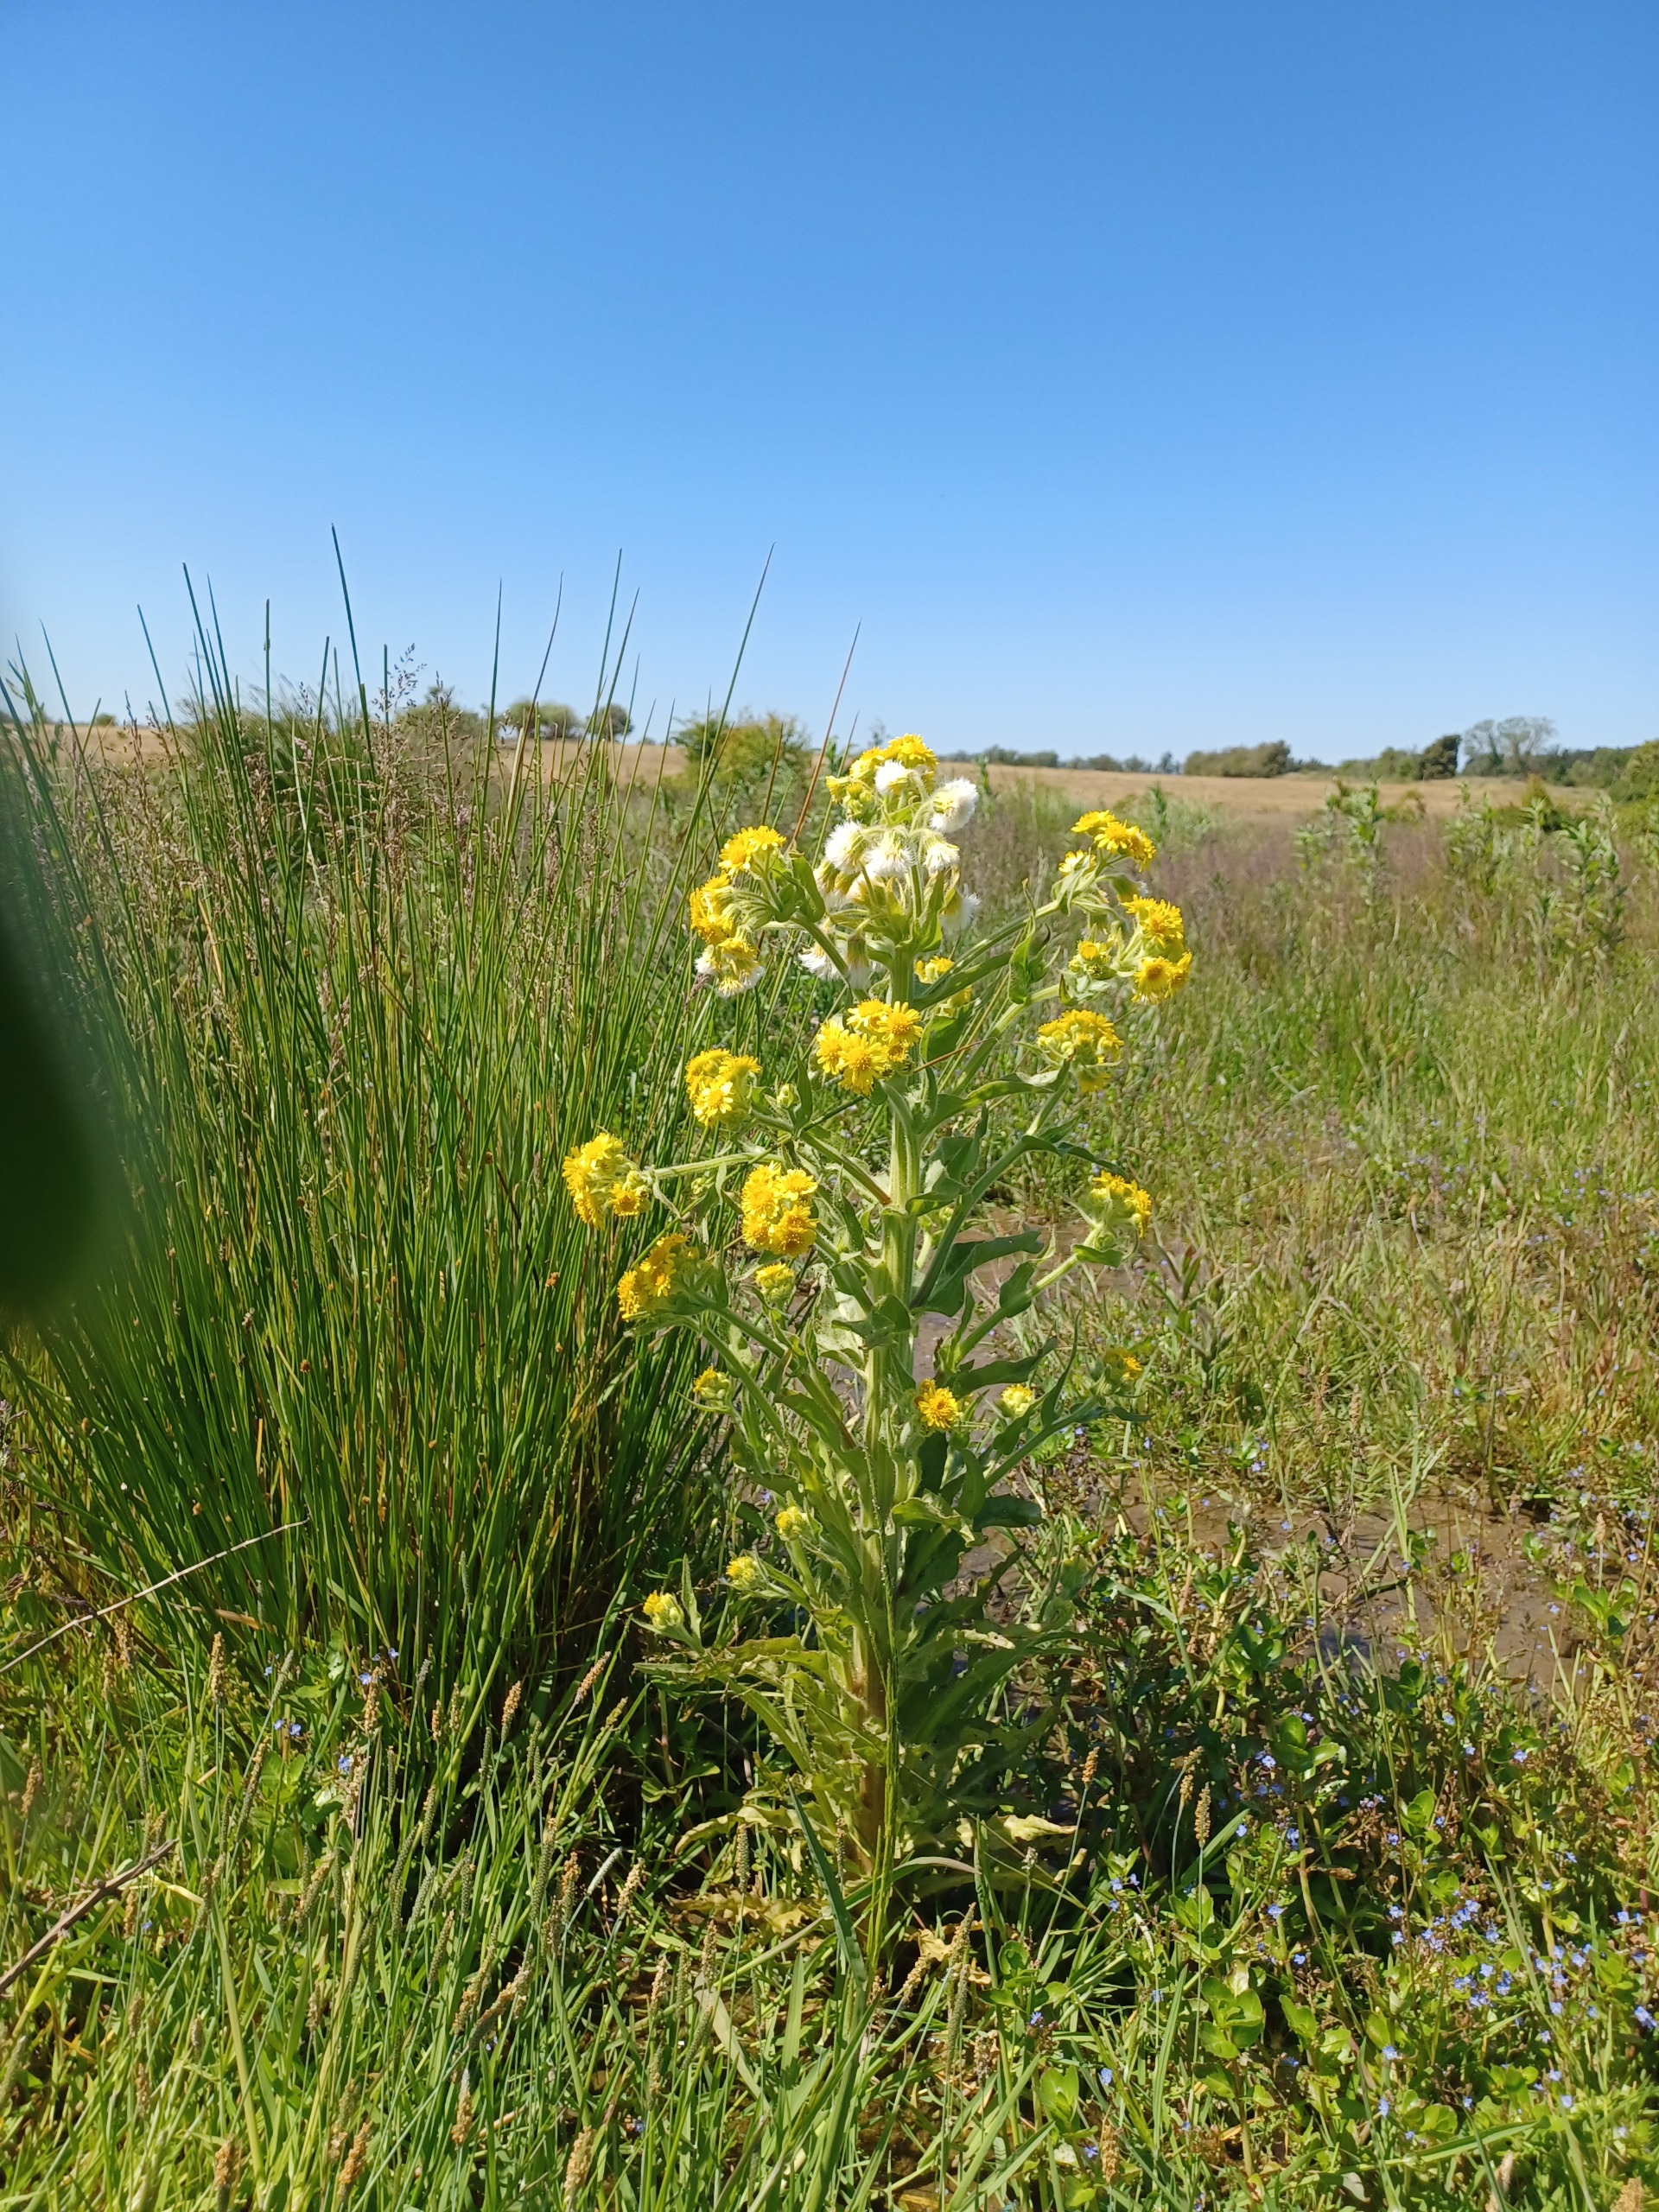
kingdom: Plantae
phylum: Tracheophyta
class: Magnoliopsida
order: Asterales
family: Asteraceae
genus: Tephroseris
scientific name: Tephroseris palustris
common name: Kær-fnokurt
